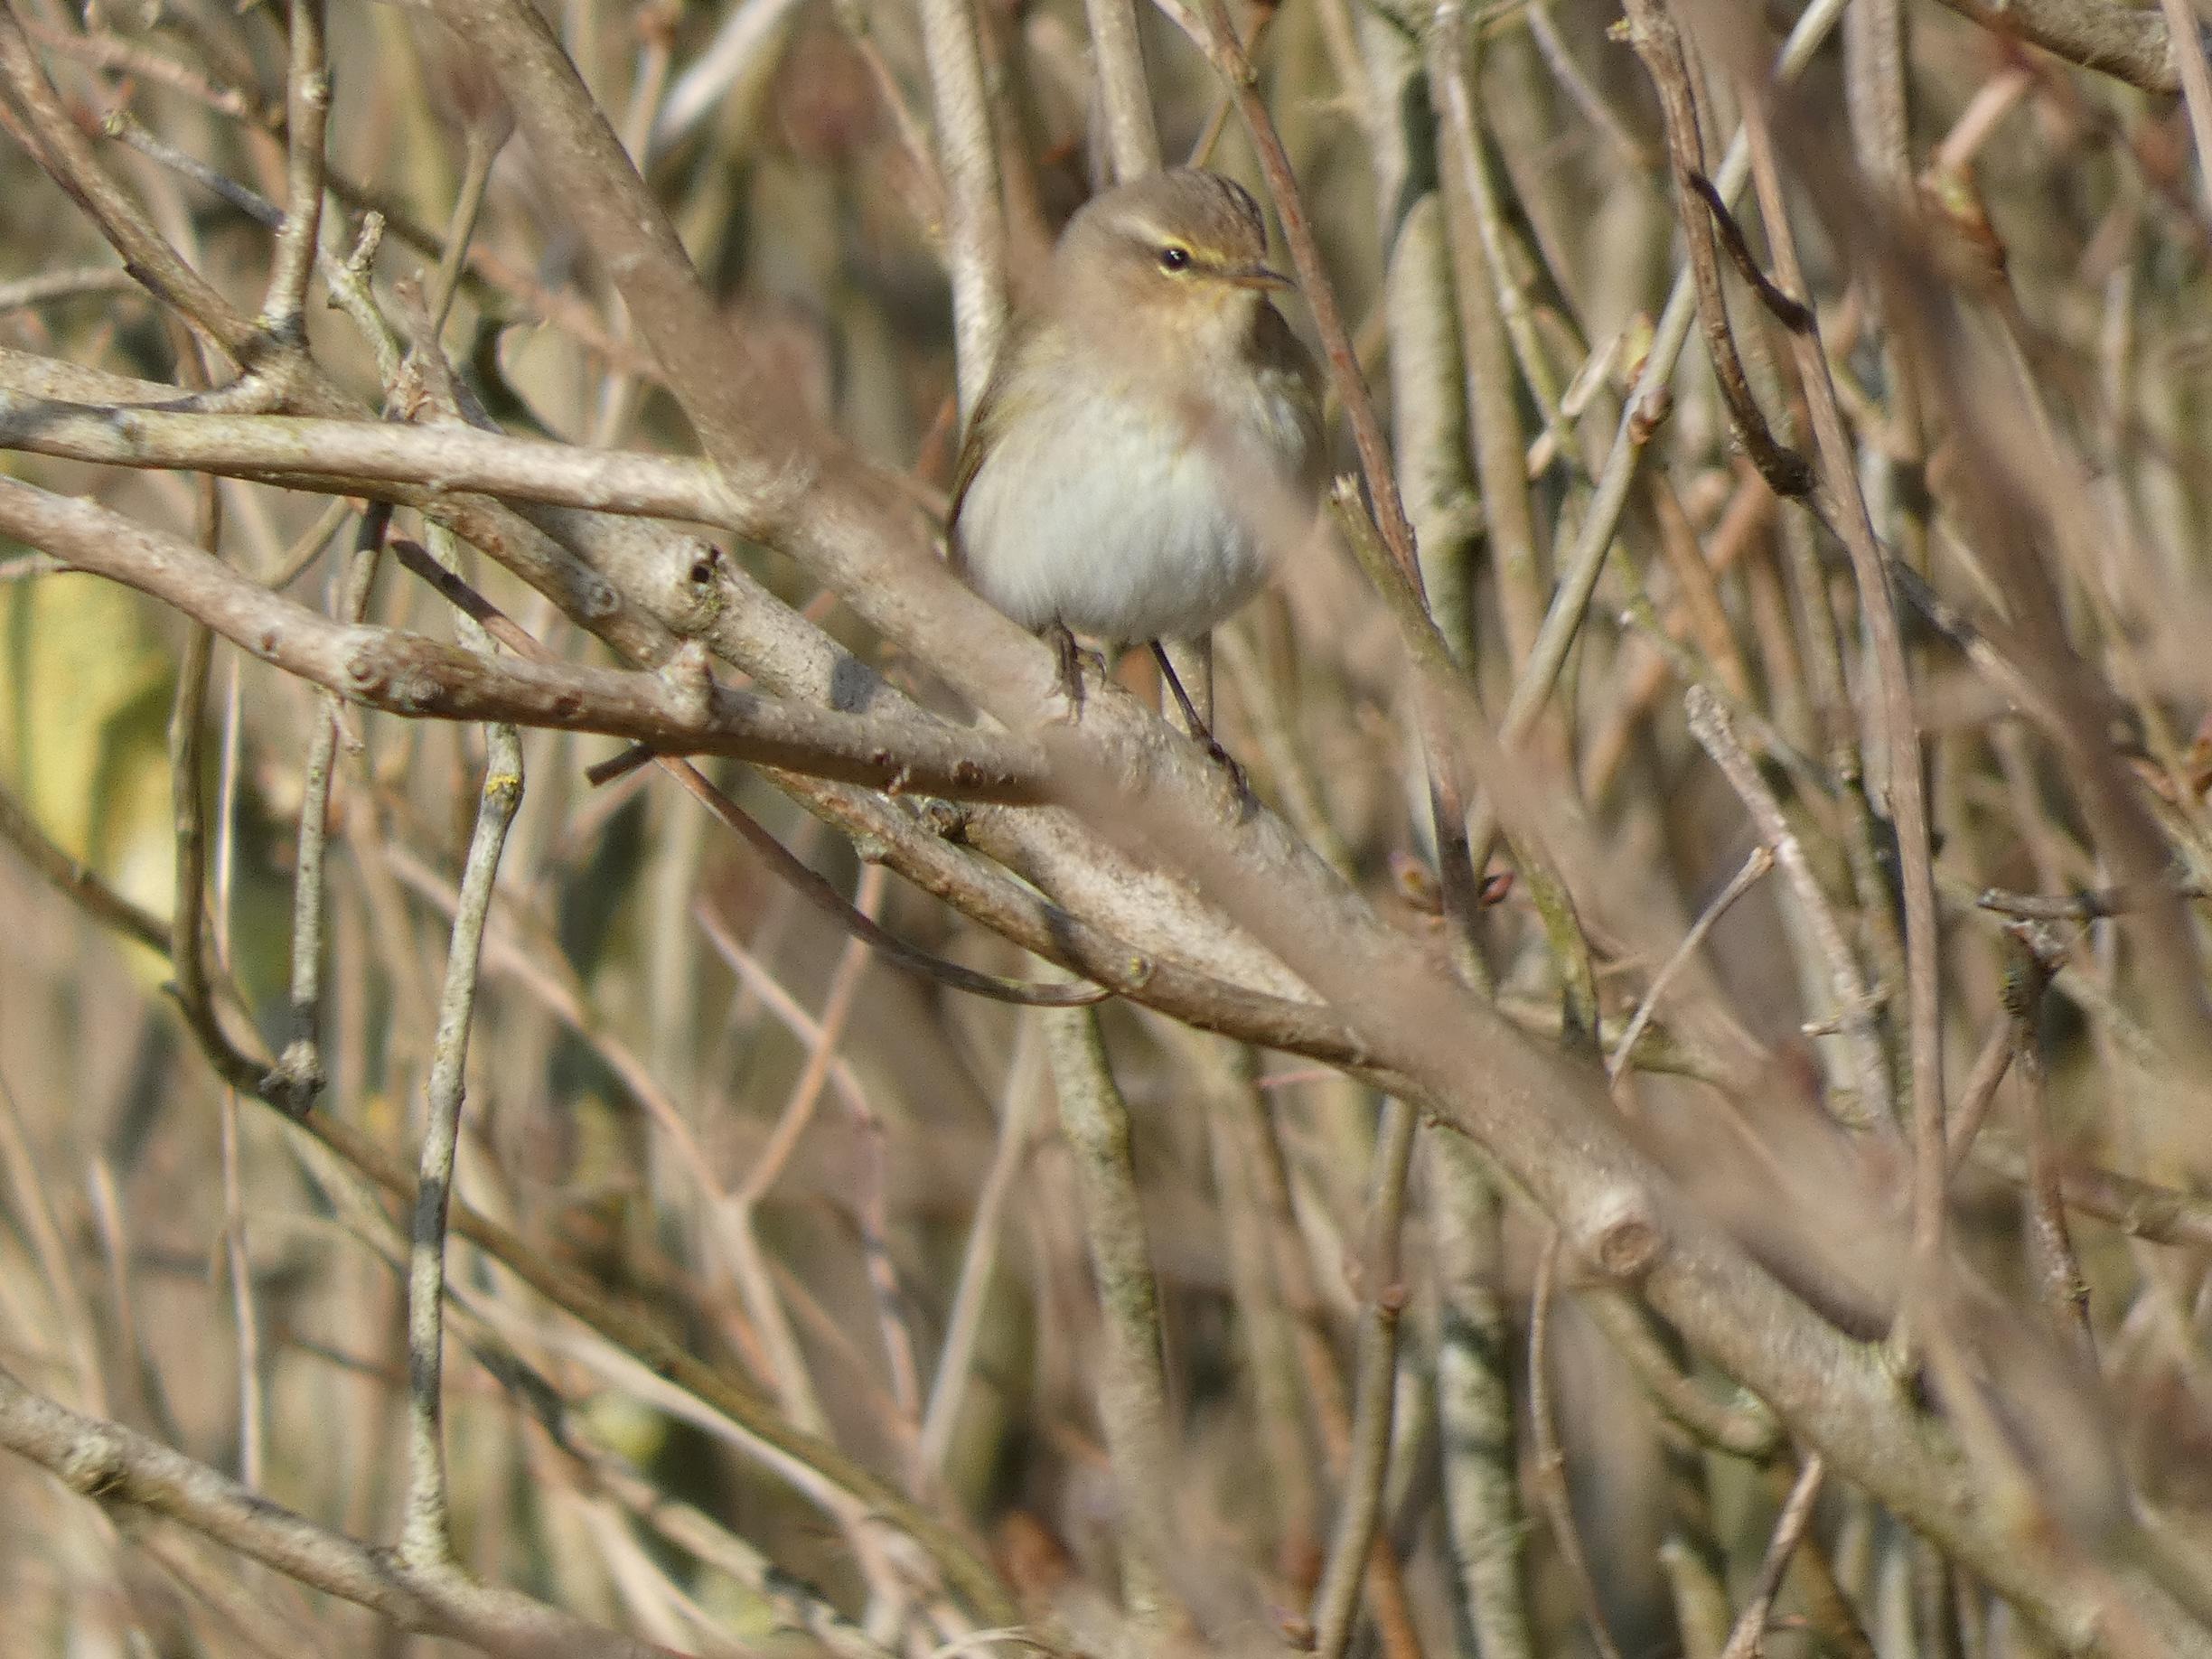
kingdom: Animalia
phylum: Chordata
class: Aves
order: Passeriformes
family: Phylloscopidae
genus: Phylloscopus
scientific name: Phylloscopus collybita
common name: Gransanger
